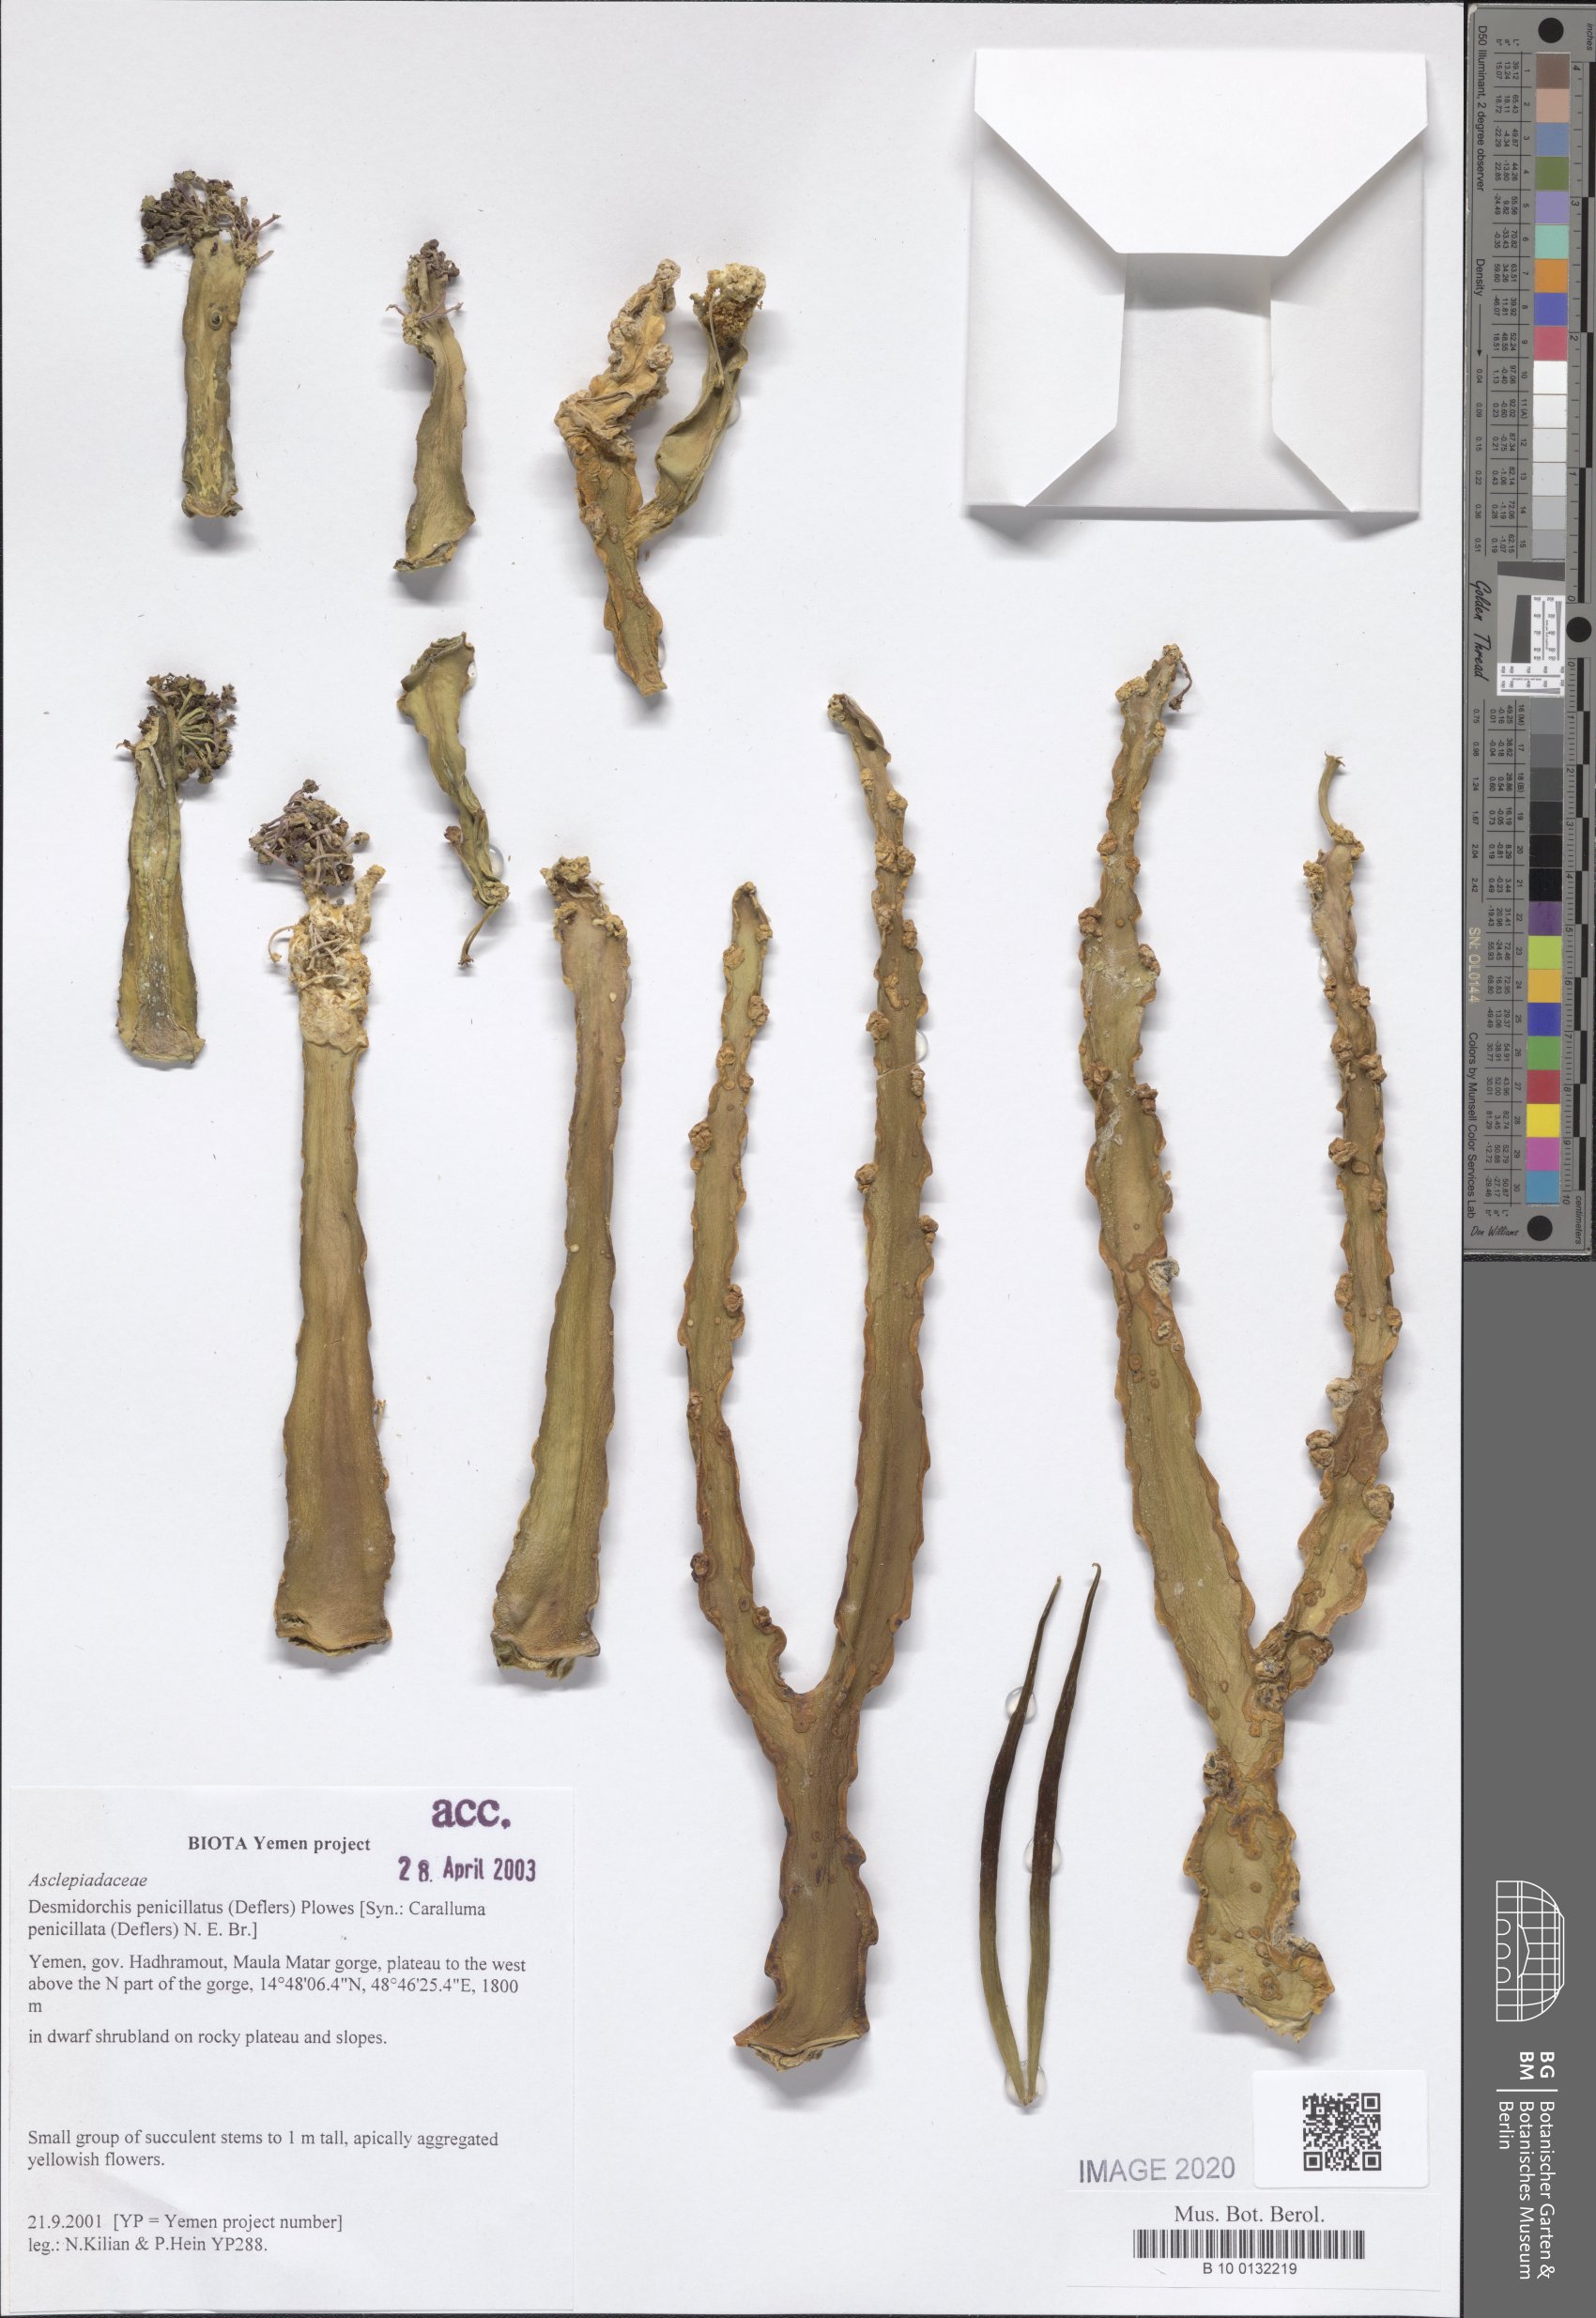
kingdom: Plantae
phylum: Tracheophyta
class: Magnoliopsida
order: Gentianales
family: Apocynaceae
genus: Ceropegia
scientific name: Ceropegia penicillata
